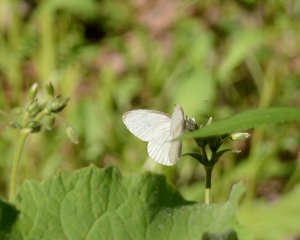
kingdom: Animalia
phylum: Arthropoda
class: Insecta
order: Lepidoptera
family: Pieridae
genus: Pieris
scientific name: Pieris oleracea
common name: Mustard White
